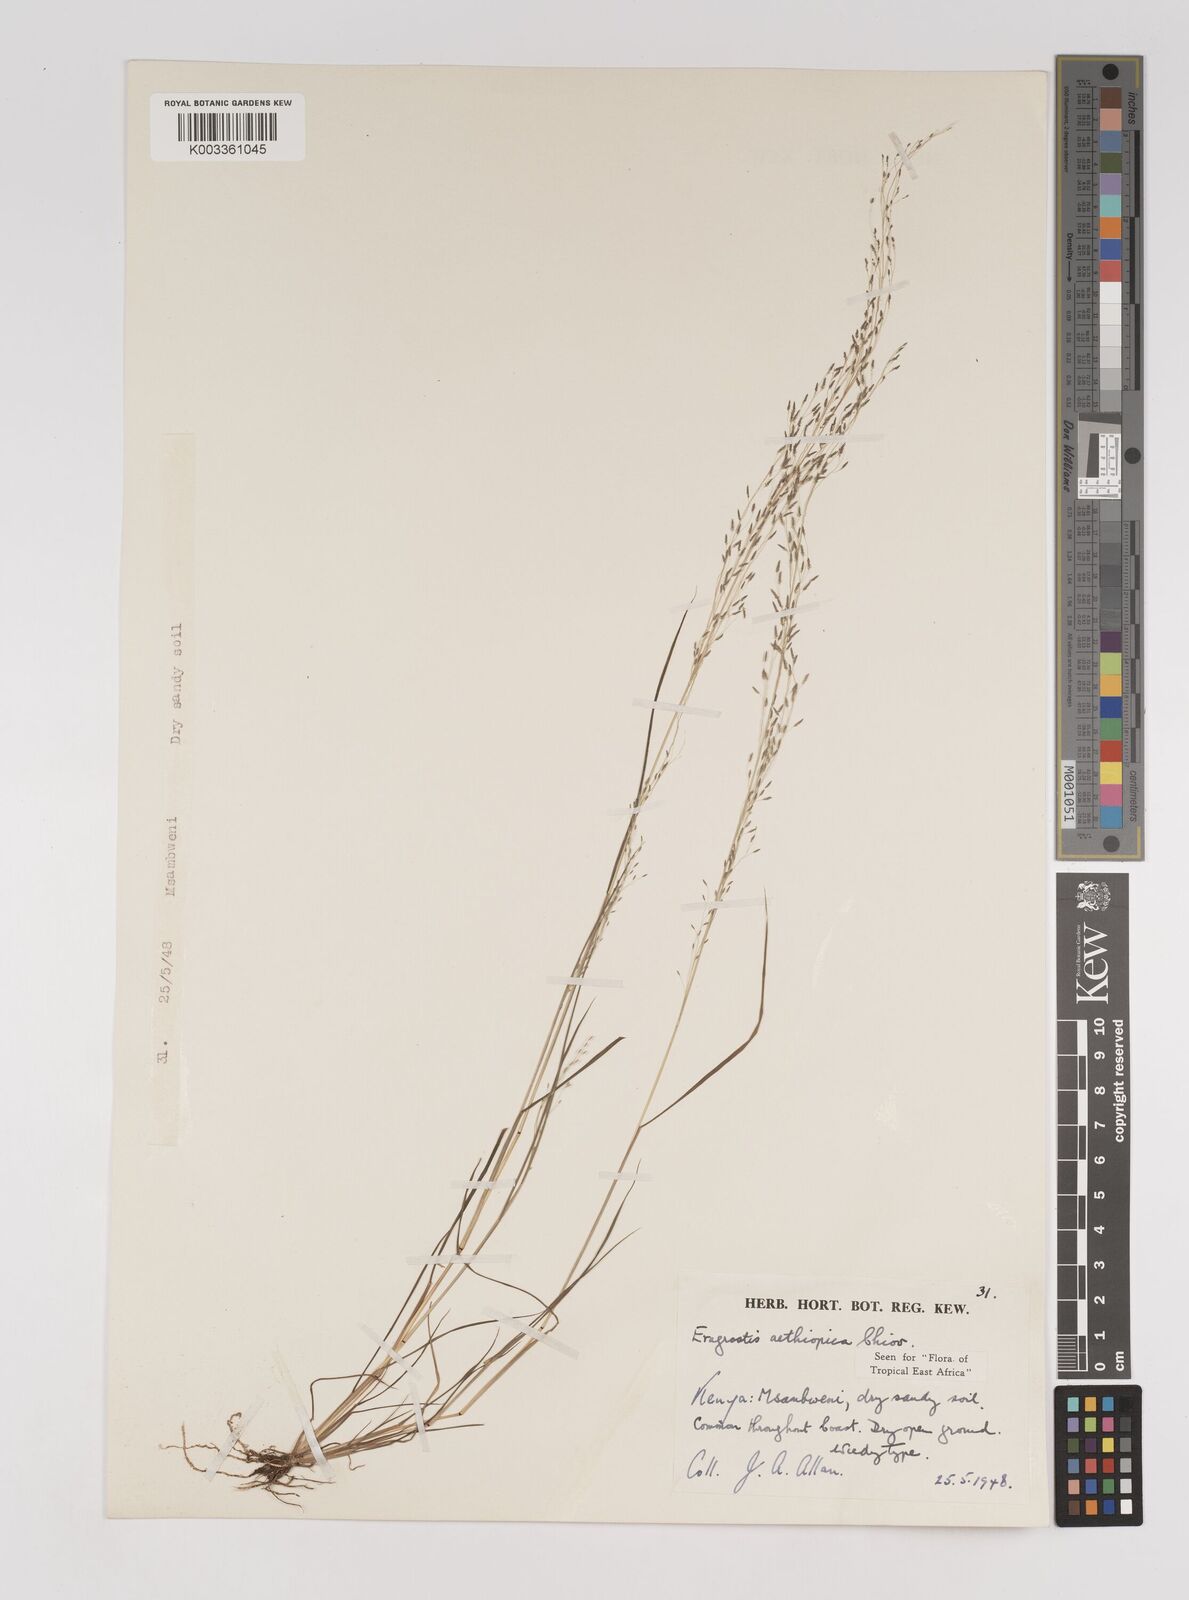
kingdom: Plantae
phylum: Tracheophyta
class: Liliopsida
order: Poales
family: Poaceae
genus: Eragrostis
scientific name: Eragrostis aethiopica
